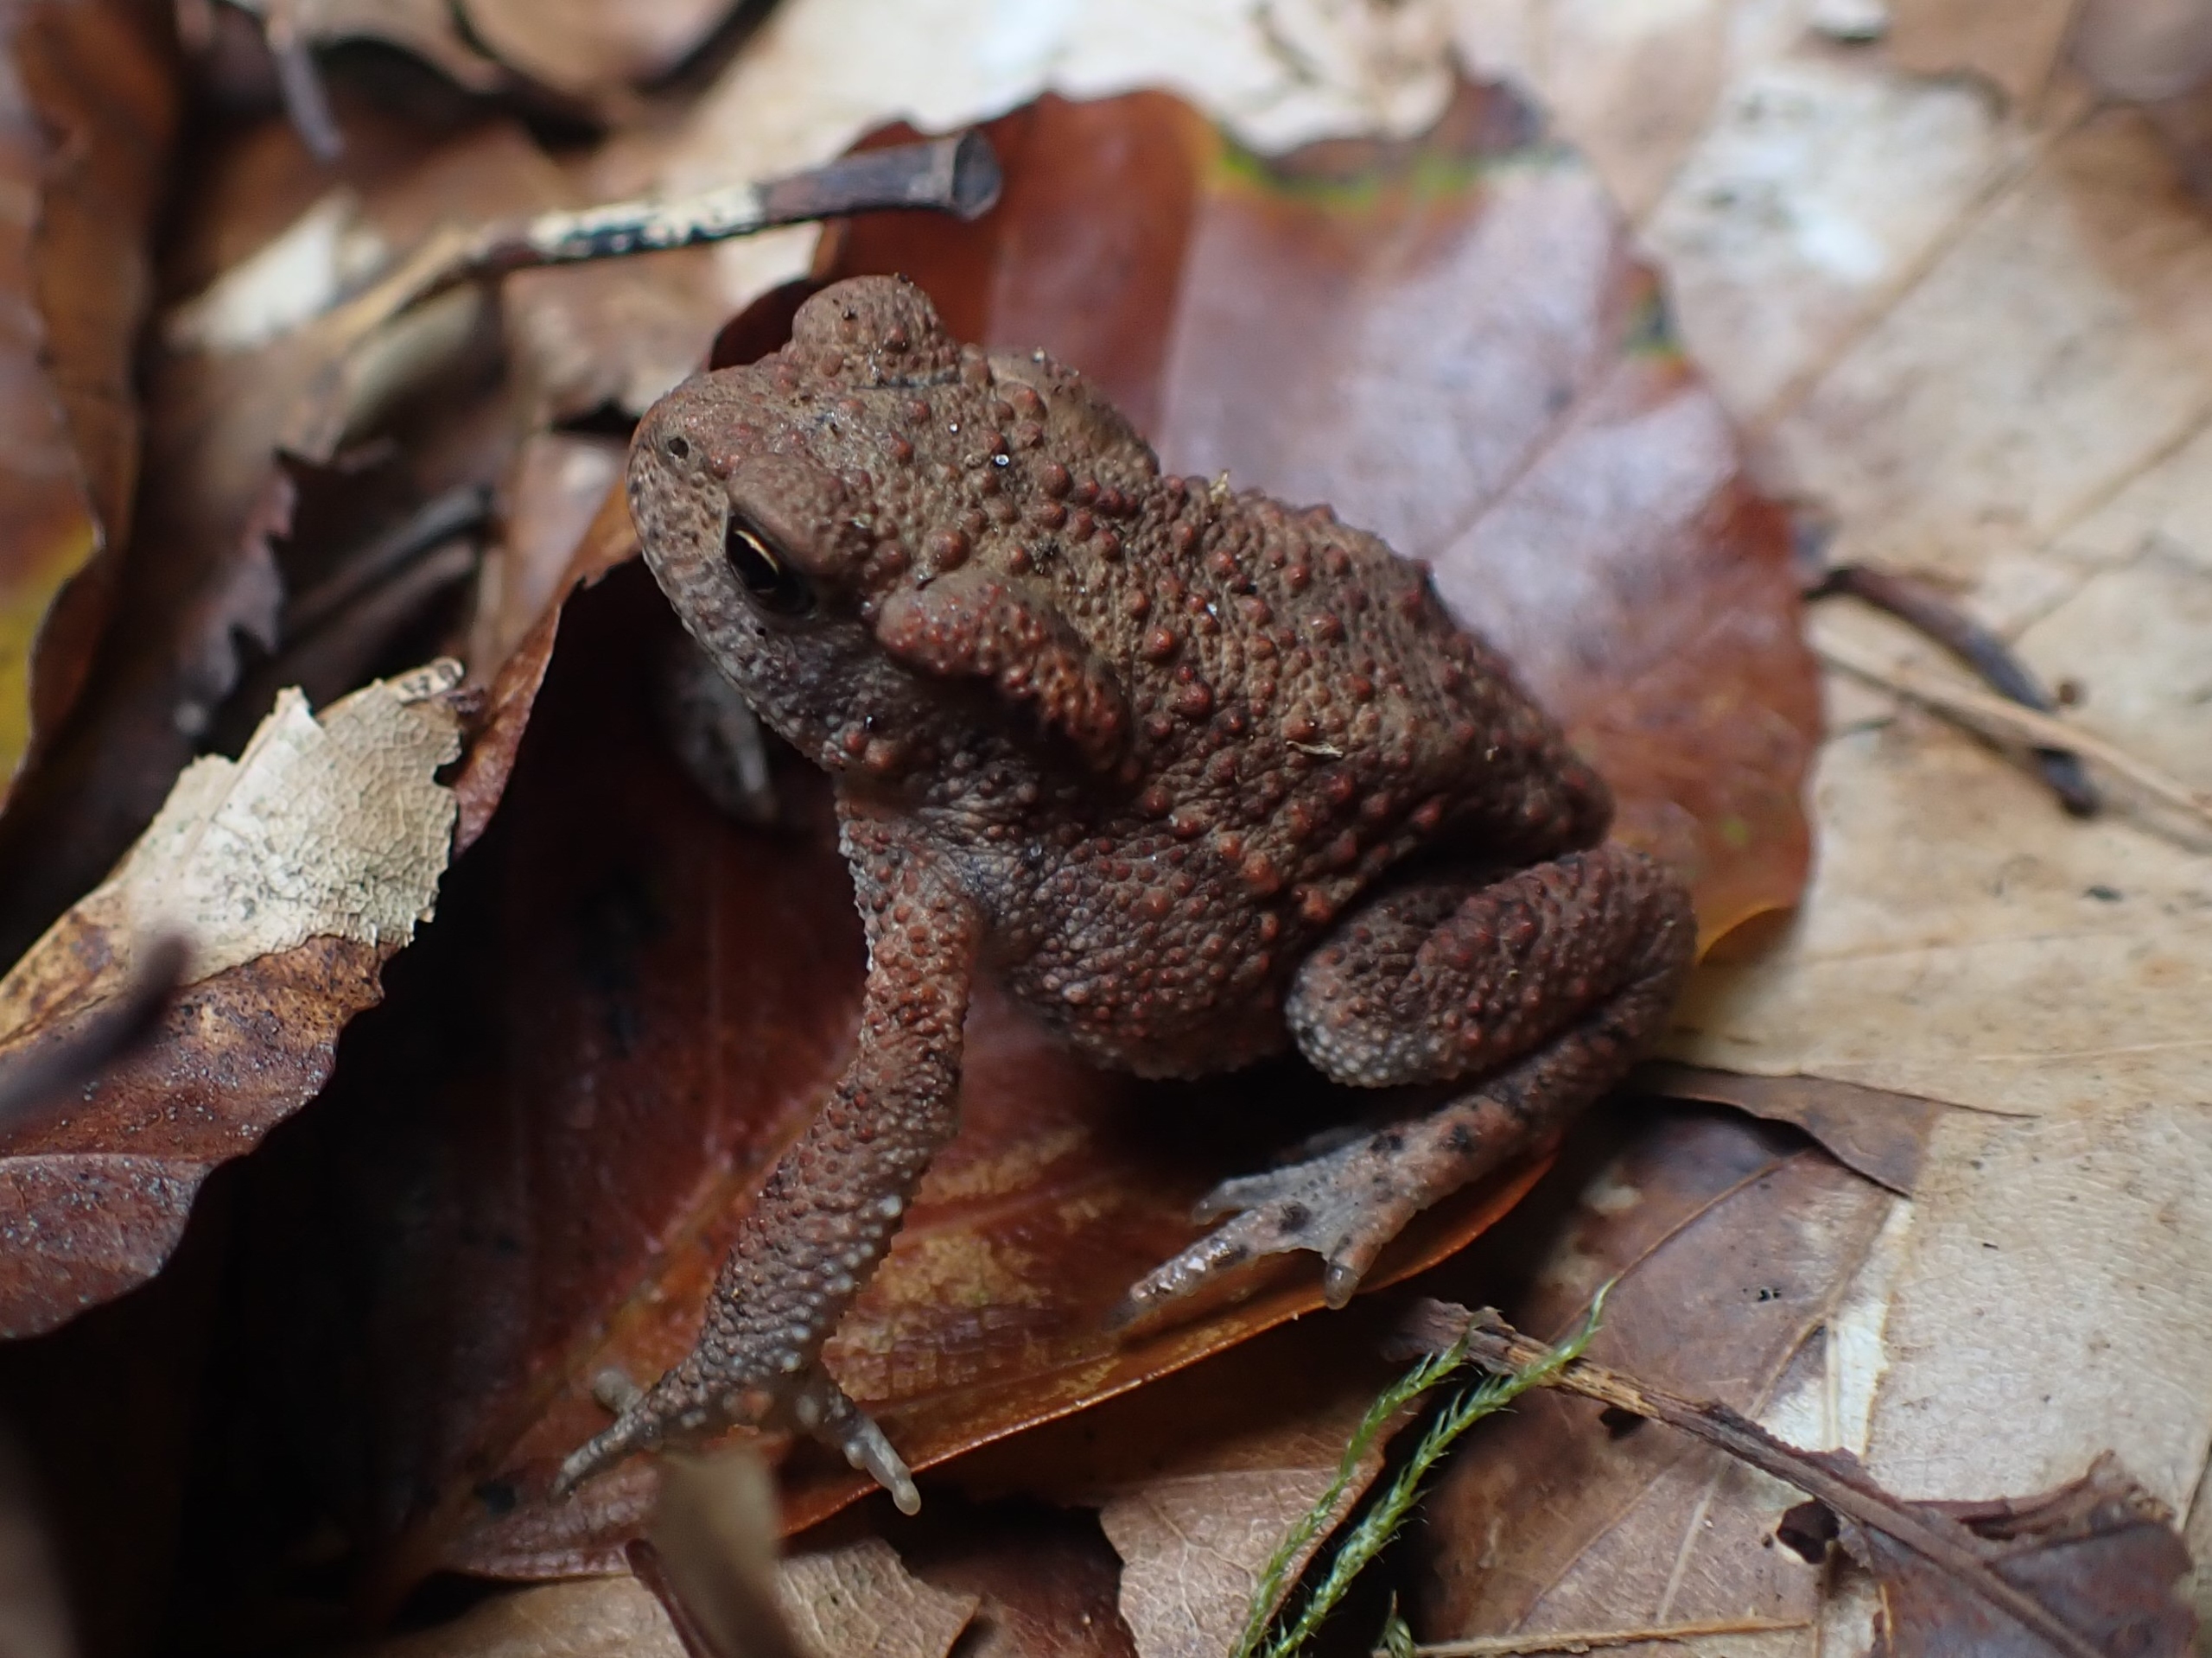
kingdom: Animalia
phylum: Chordata
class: Amphibia
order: Anura
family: Bufonidae
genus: Bufo
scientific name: Bufo bufo
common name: Skrubtudse
